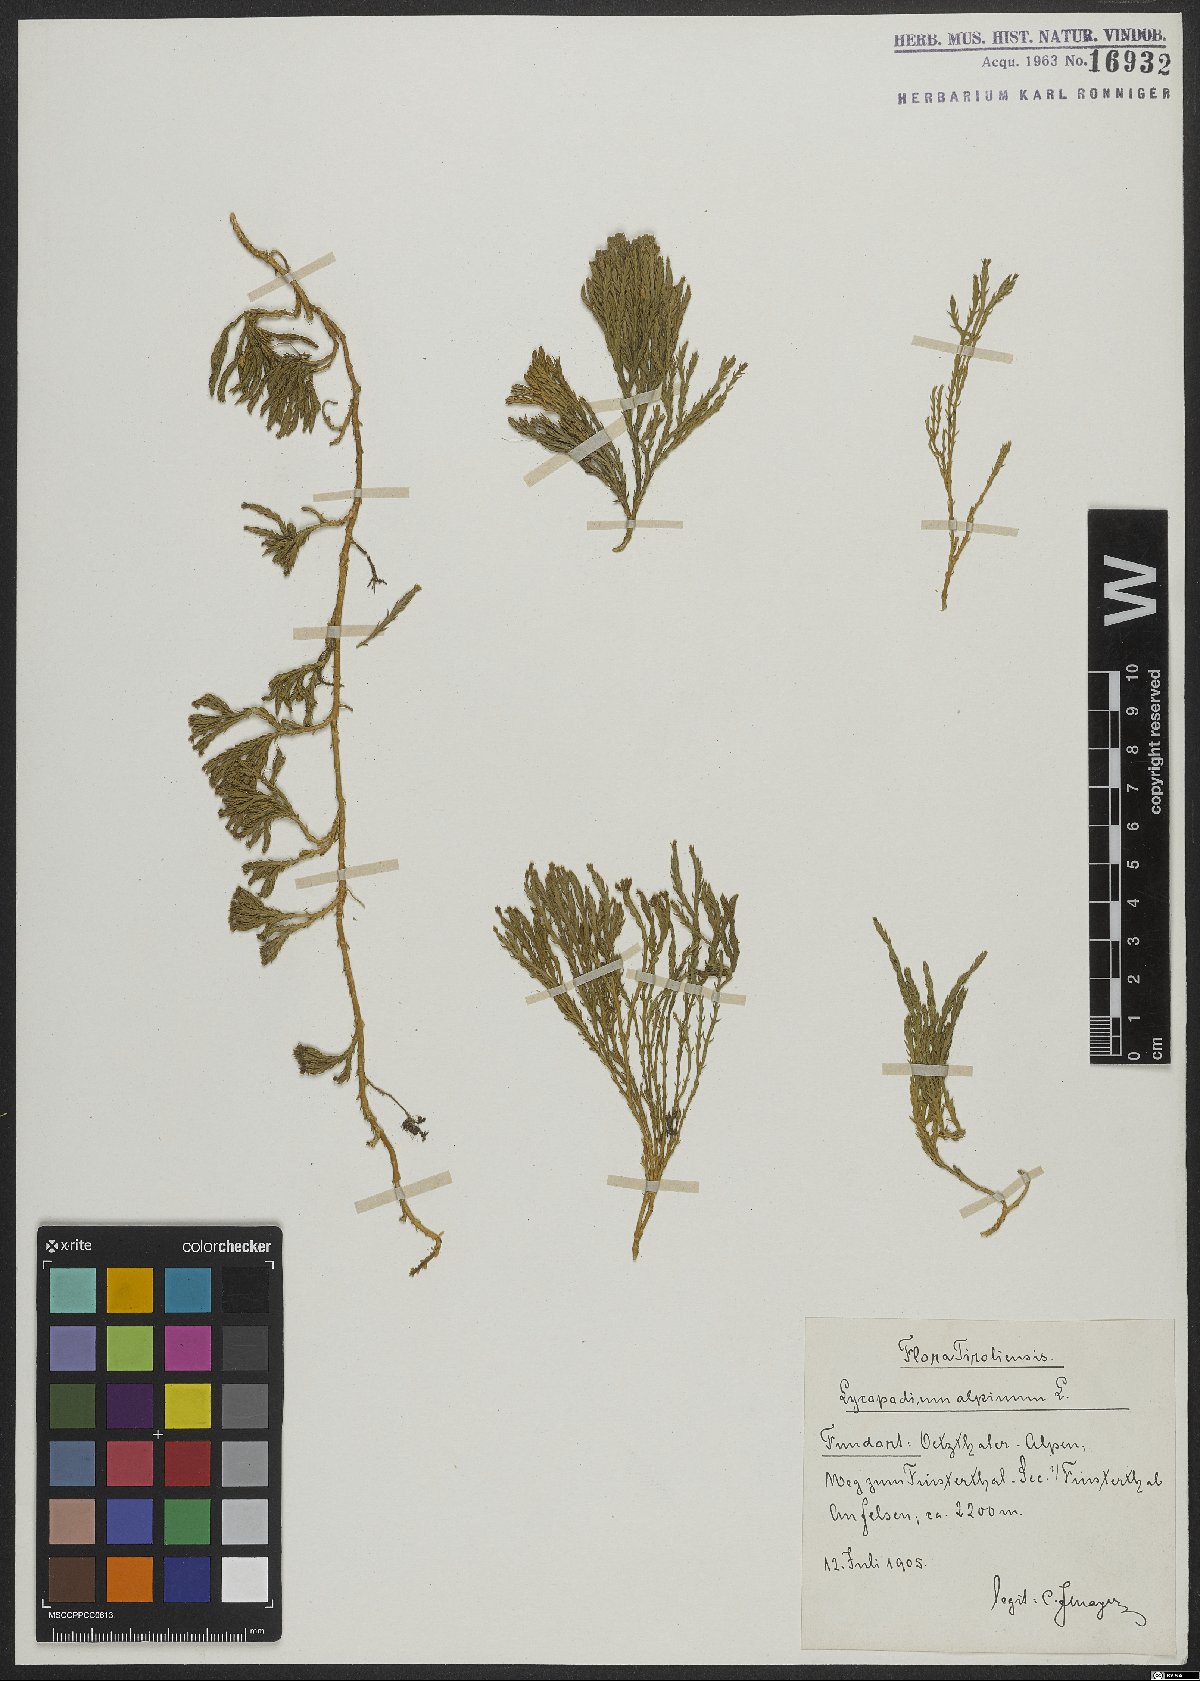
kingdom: Plantae
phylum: Tracheophyta
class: Lycopodiopsida
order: Lycopodiales
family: Lycopodiaceae
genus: Diphasiastrum
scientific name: Diphasiastrum alpinum
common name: Alpine clubmoss
